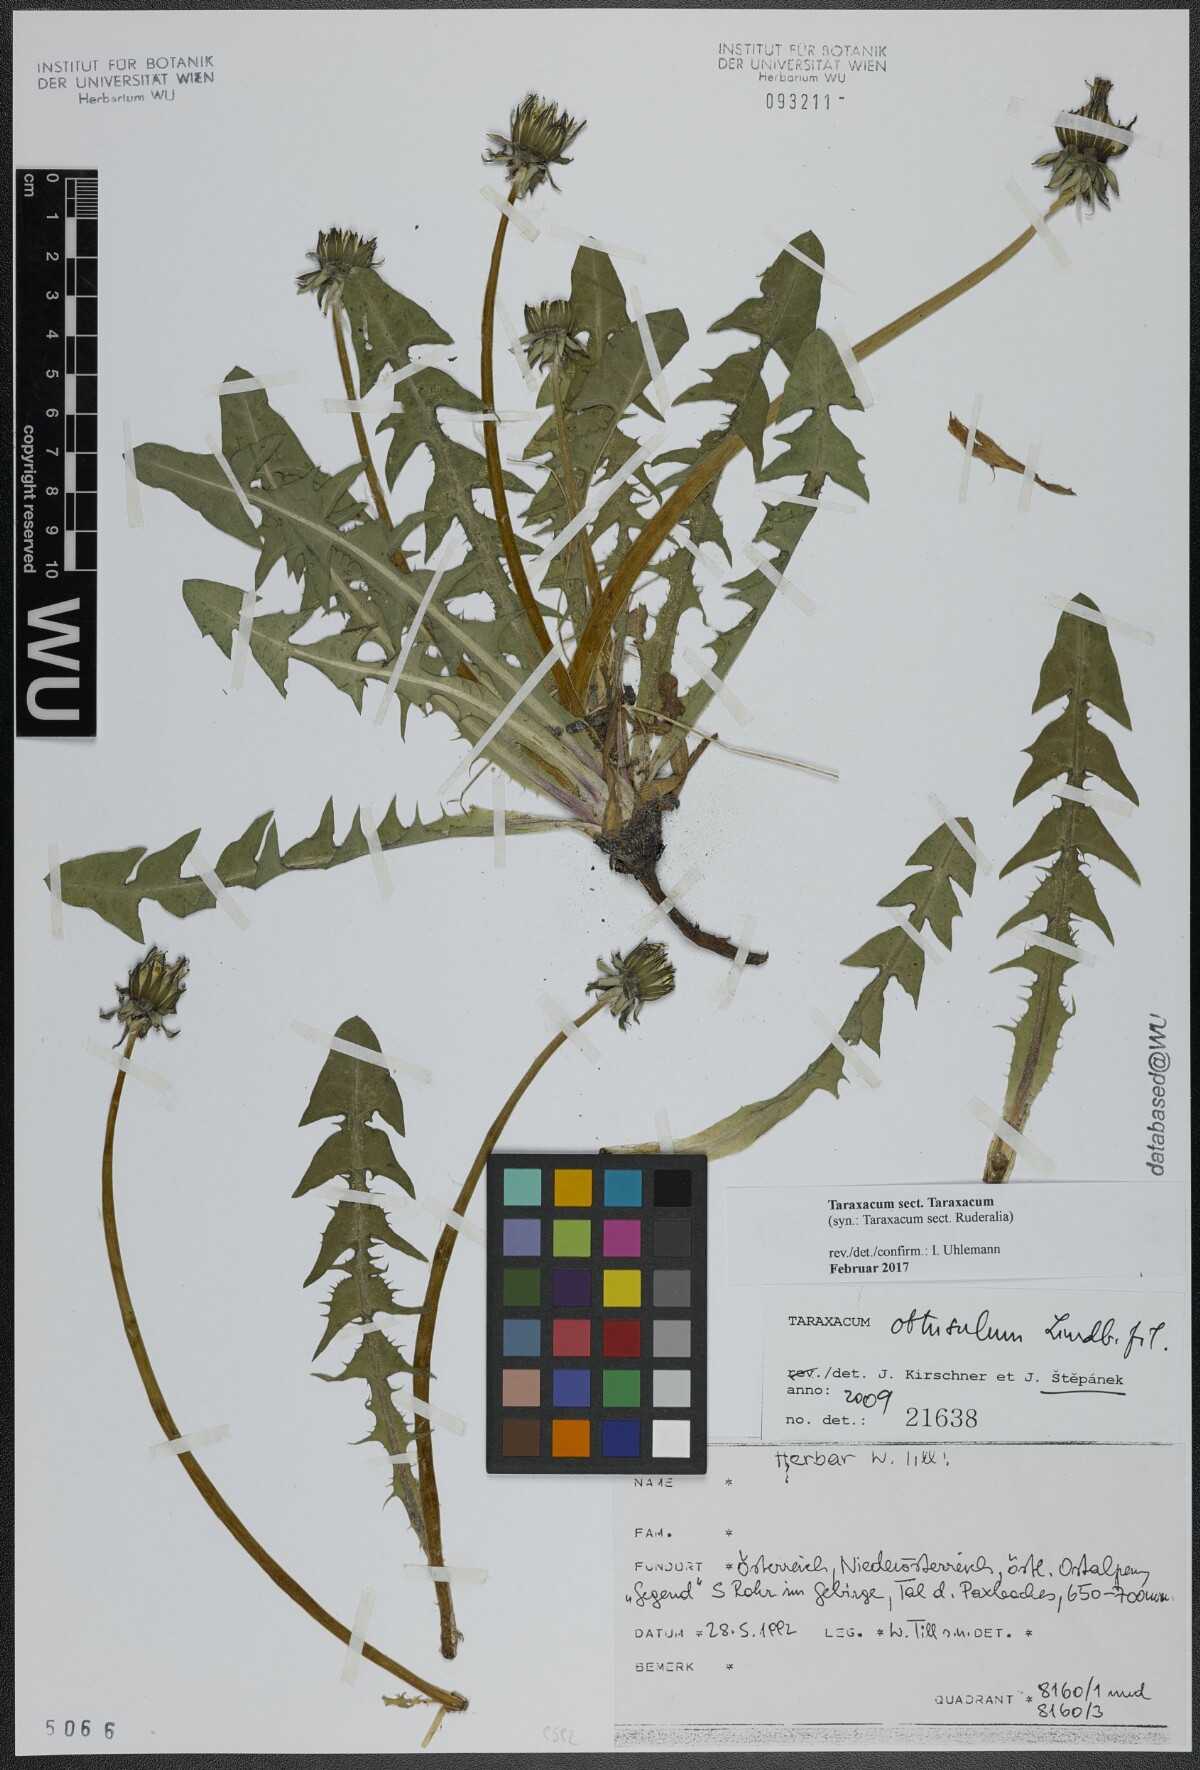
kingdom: Plantae
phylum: Tracheophyta
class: Magnoliopsida
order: Asterales
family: Asteraceae
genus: Taraxacum
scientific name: Taraxacum
